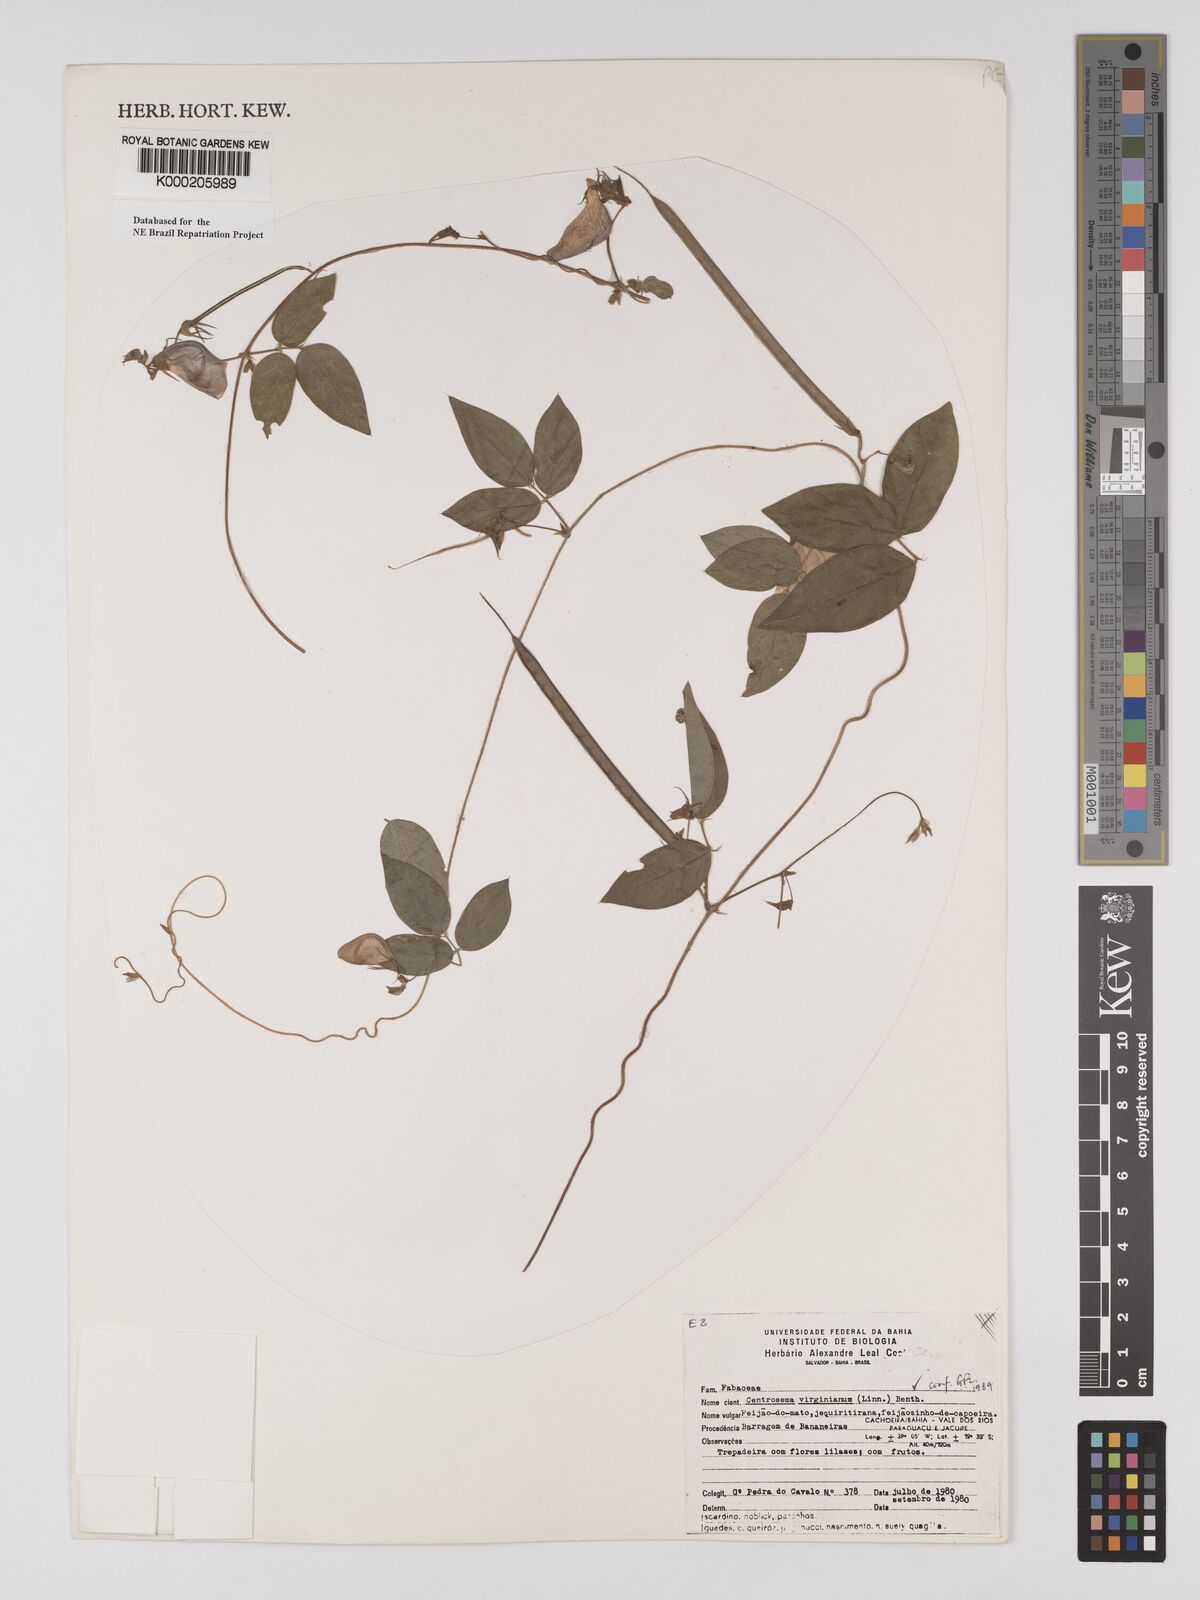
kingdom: Plantae
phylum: Tracheophyta
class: Magnoliopsida
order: Fabales
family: Fabaceae
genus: Centrosema
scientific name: Centrosema virginianum
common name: Butterfly-pea
